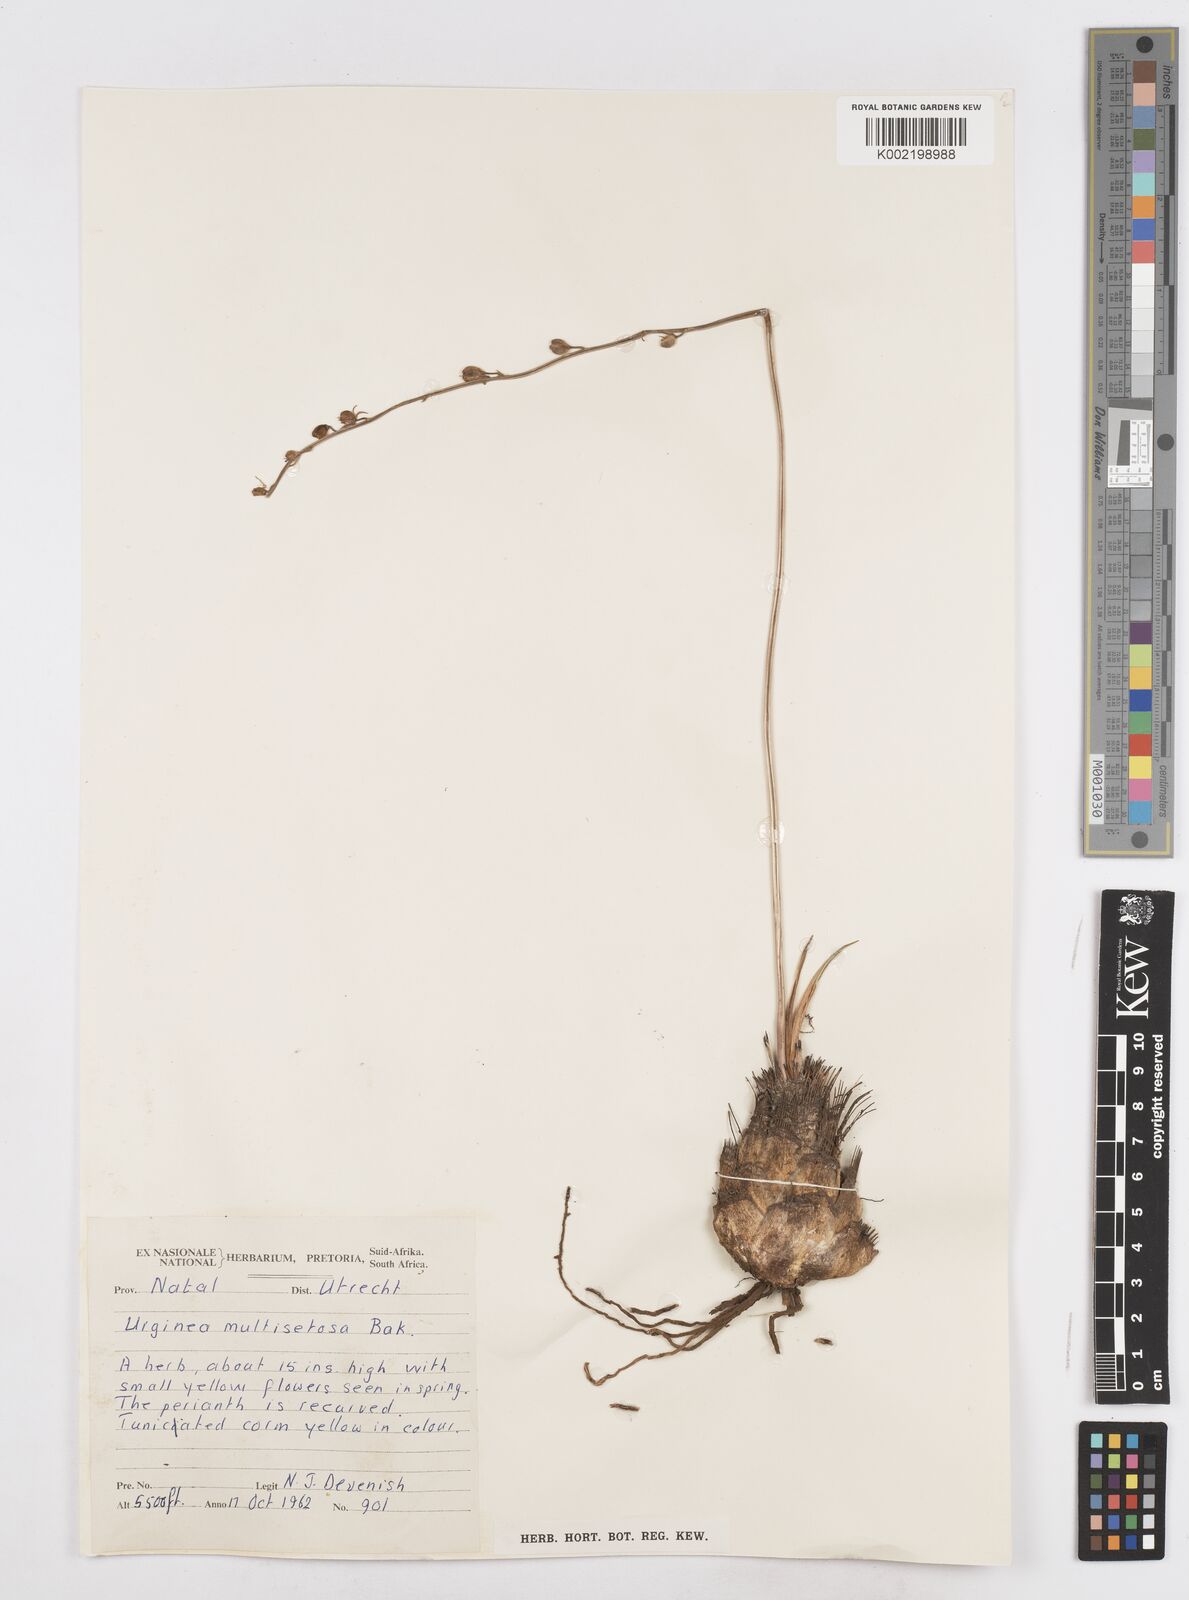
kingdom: Plantae
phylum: Tracheophyta
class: Liliopsida
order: Asparagales
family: Asparagaceae
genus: Drimia
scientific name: Drimia multisetosa
